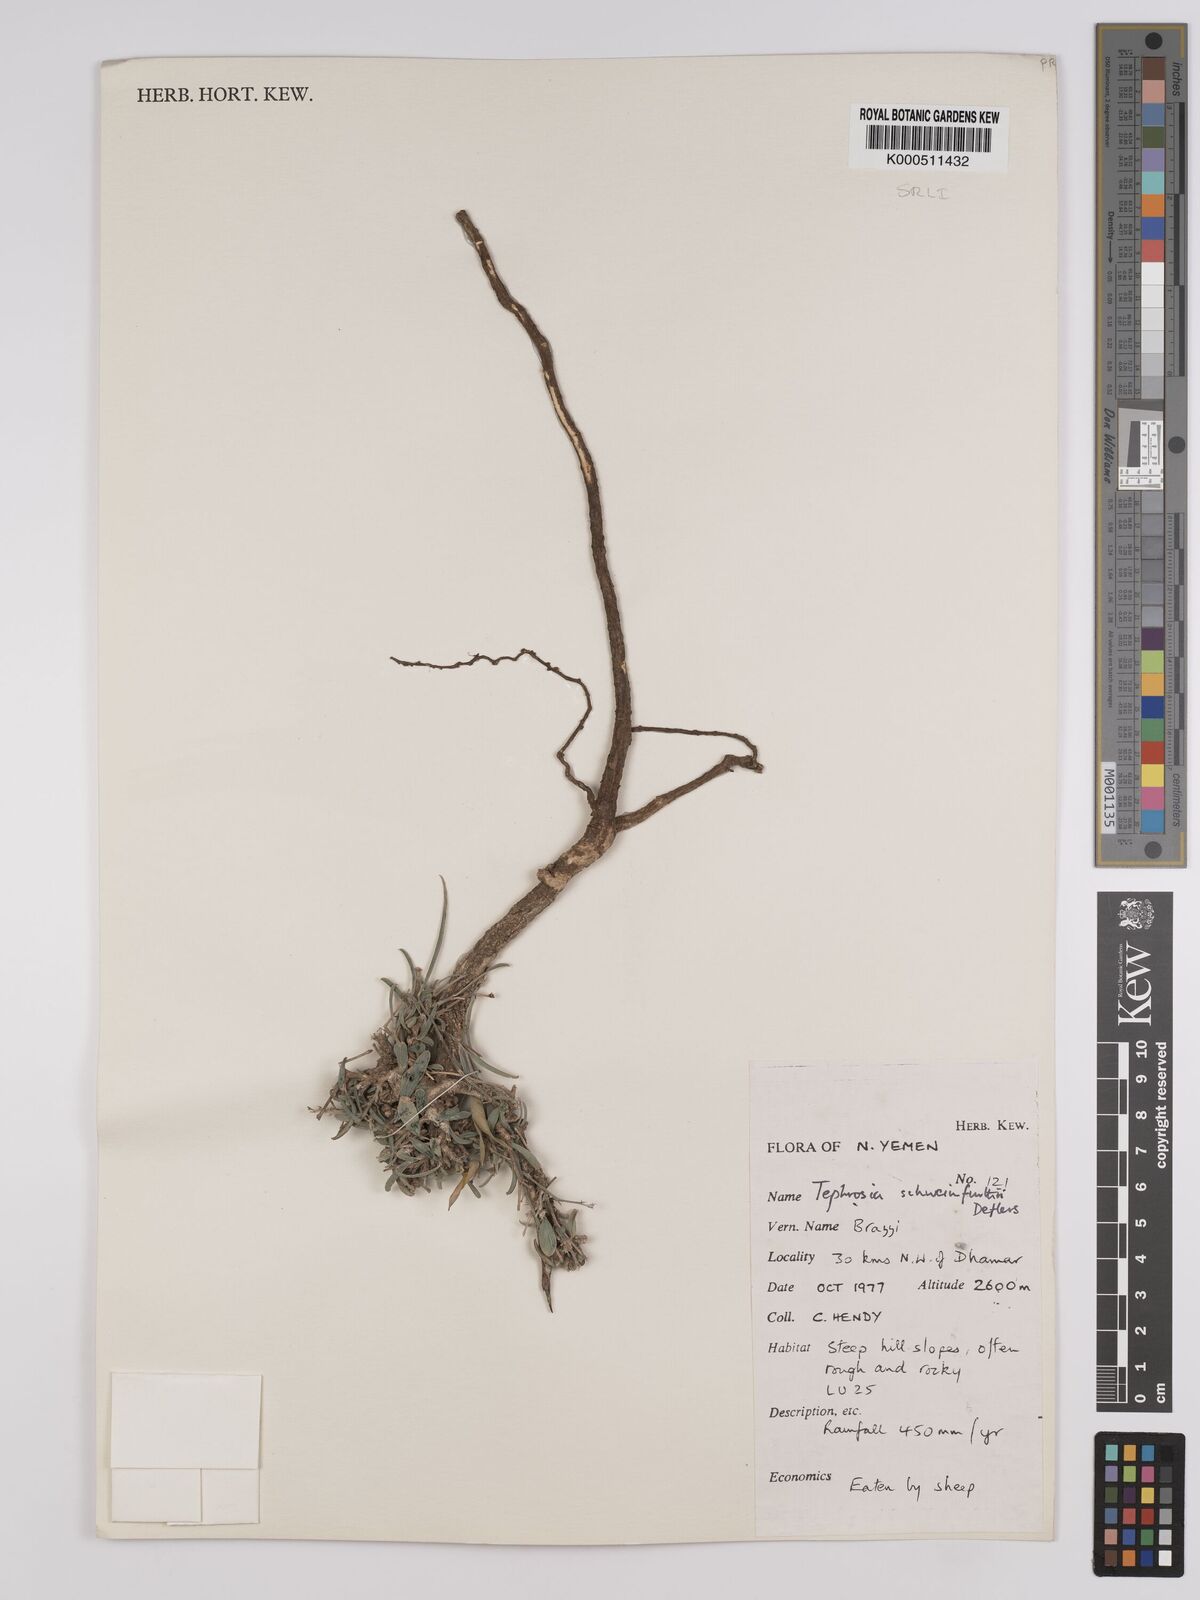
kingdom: Plantae
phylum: Tracheophyta
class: Magnoliopsida
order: Fabales
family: Fabaceae
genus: Tephrosia
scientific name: Tephrosia heterophylla
